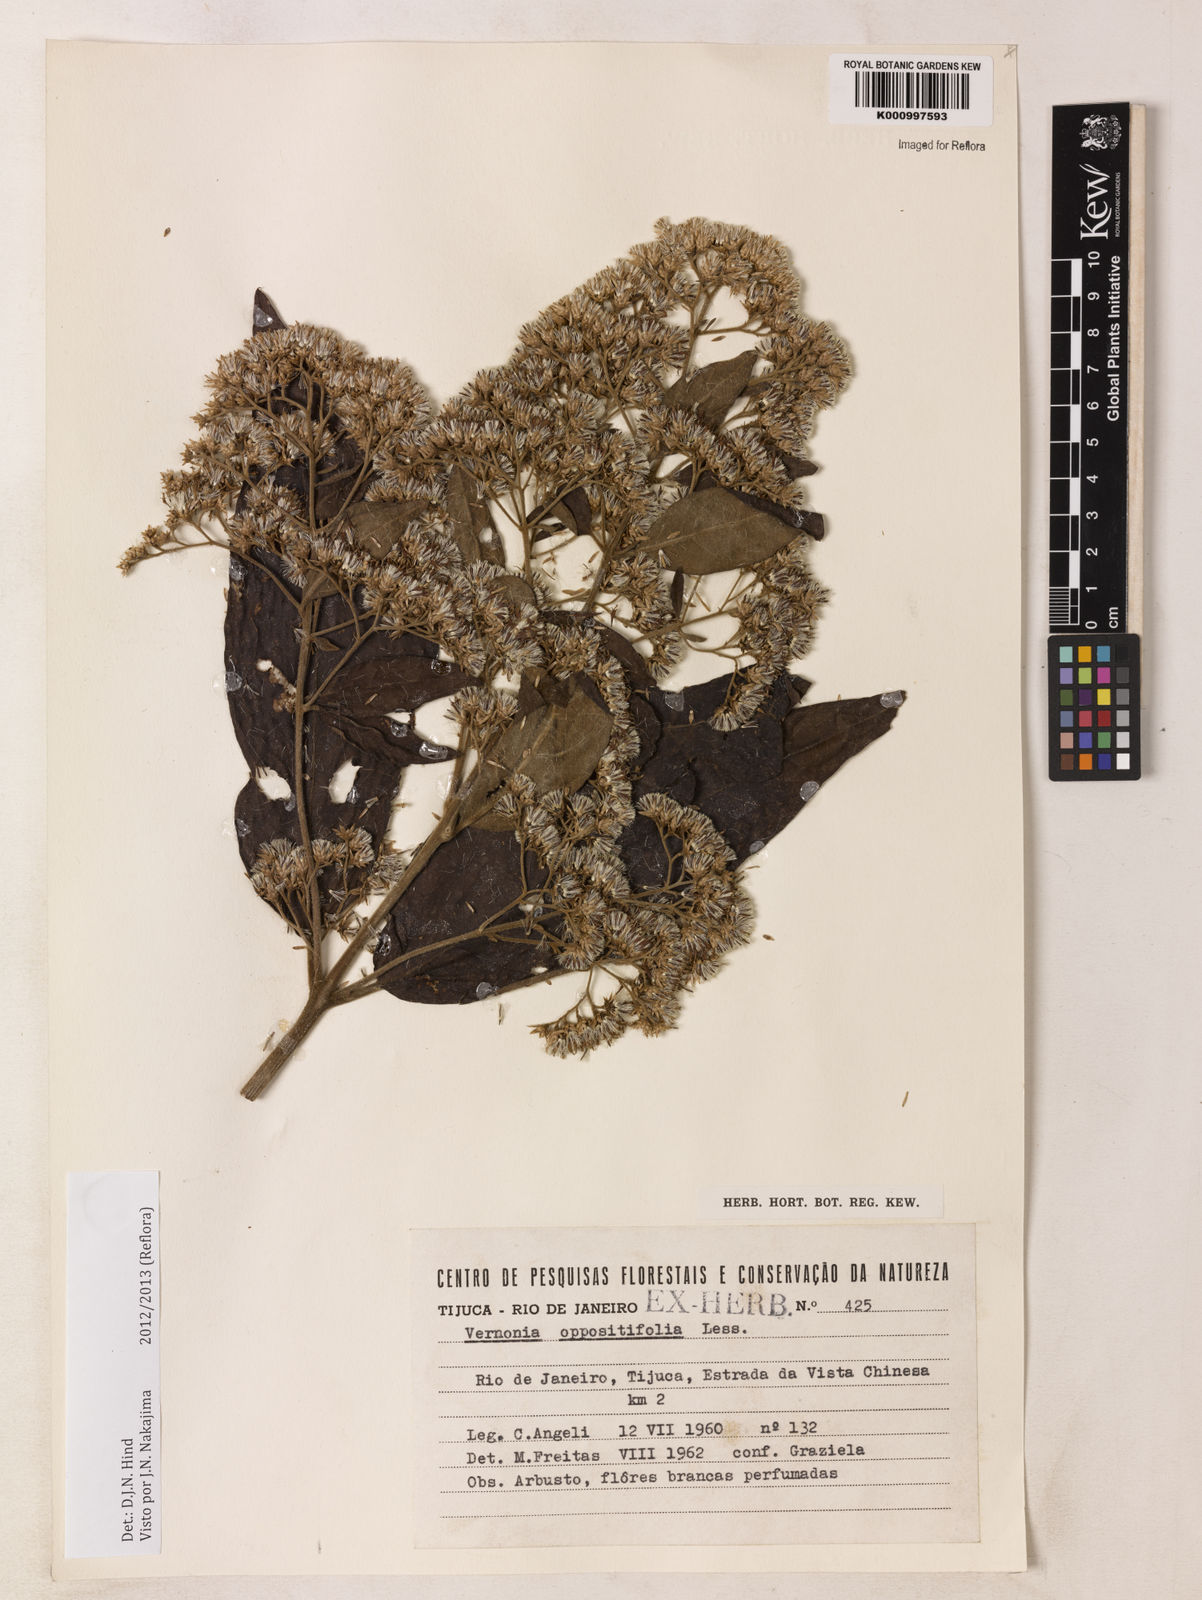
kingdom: Plantae
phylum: Tracheophyta
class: Magnoliopsida
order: Asterales
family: Asteraceae
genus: Critoniopsis
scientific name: Critoniopsis stellata
